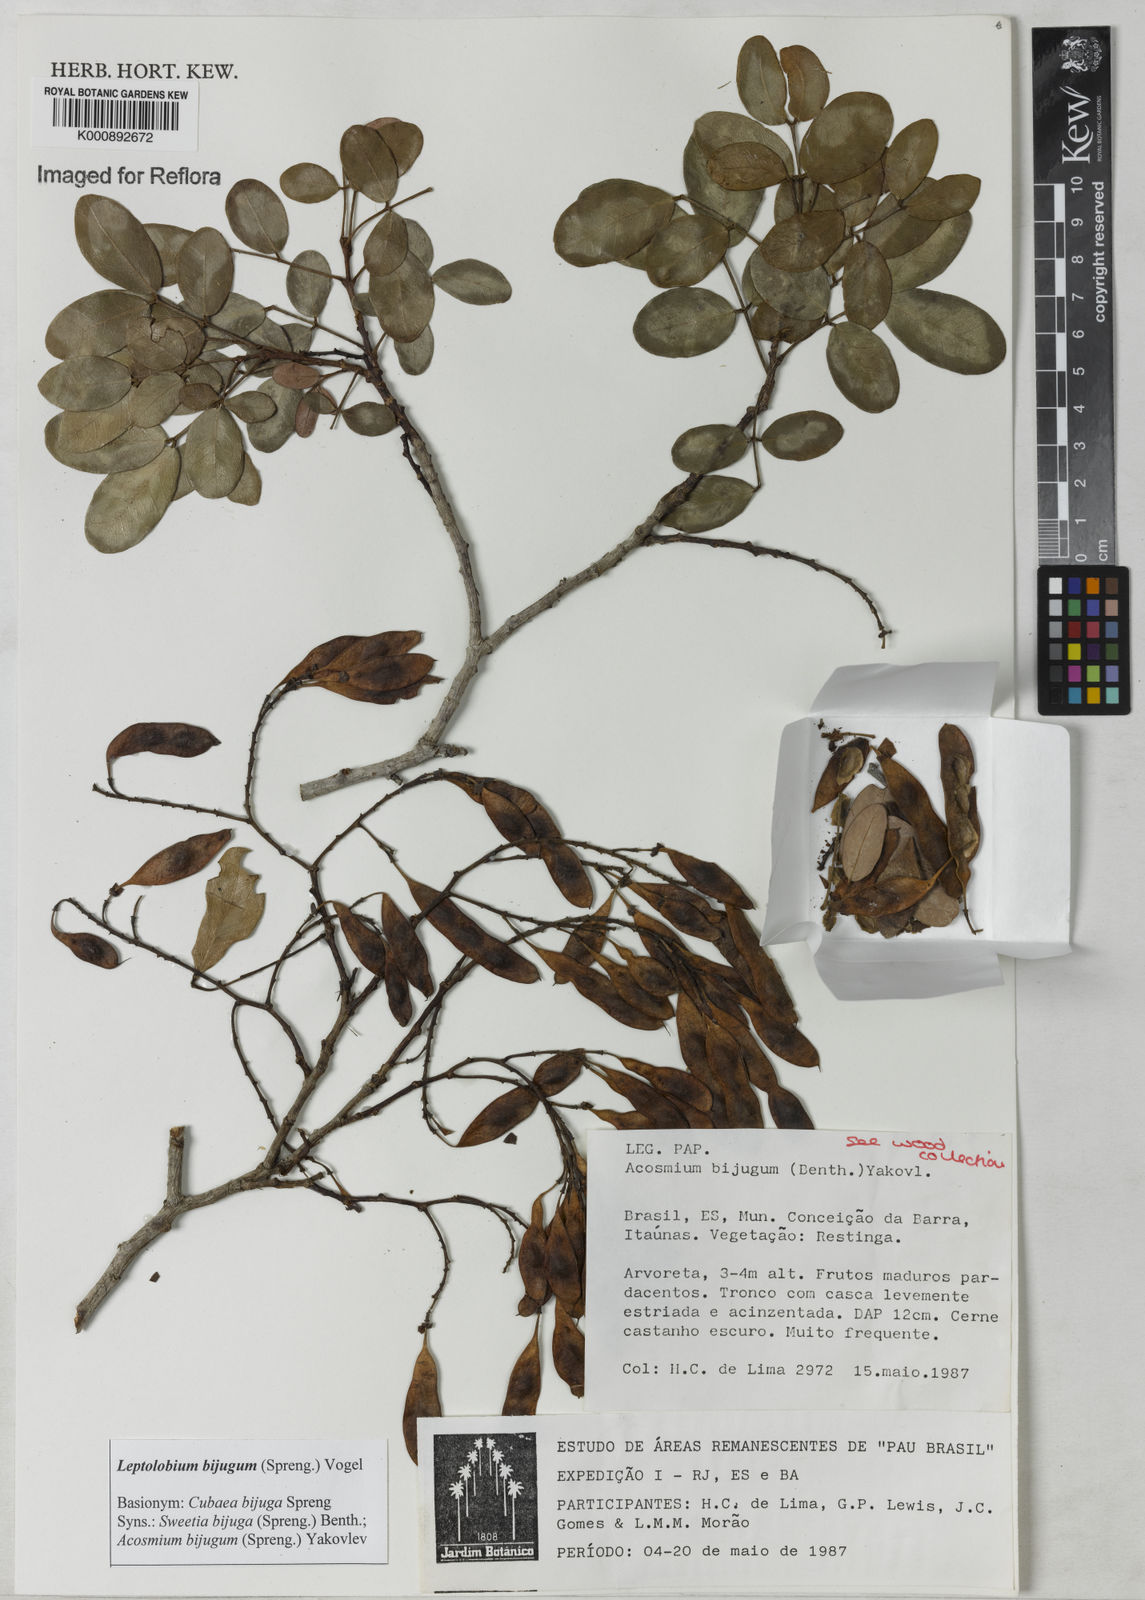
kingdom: Plantae
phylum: Tracheophyta
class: Magnoliopsida
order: Fabales
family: Fabaceae
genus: Leptolobium
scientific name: Leptolobium bijugum
